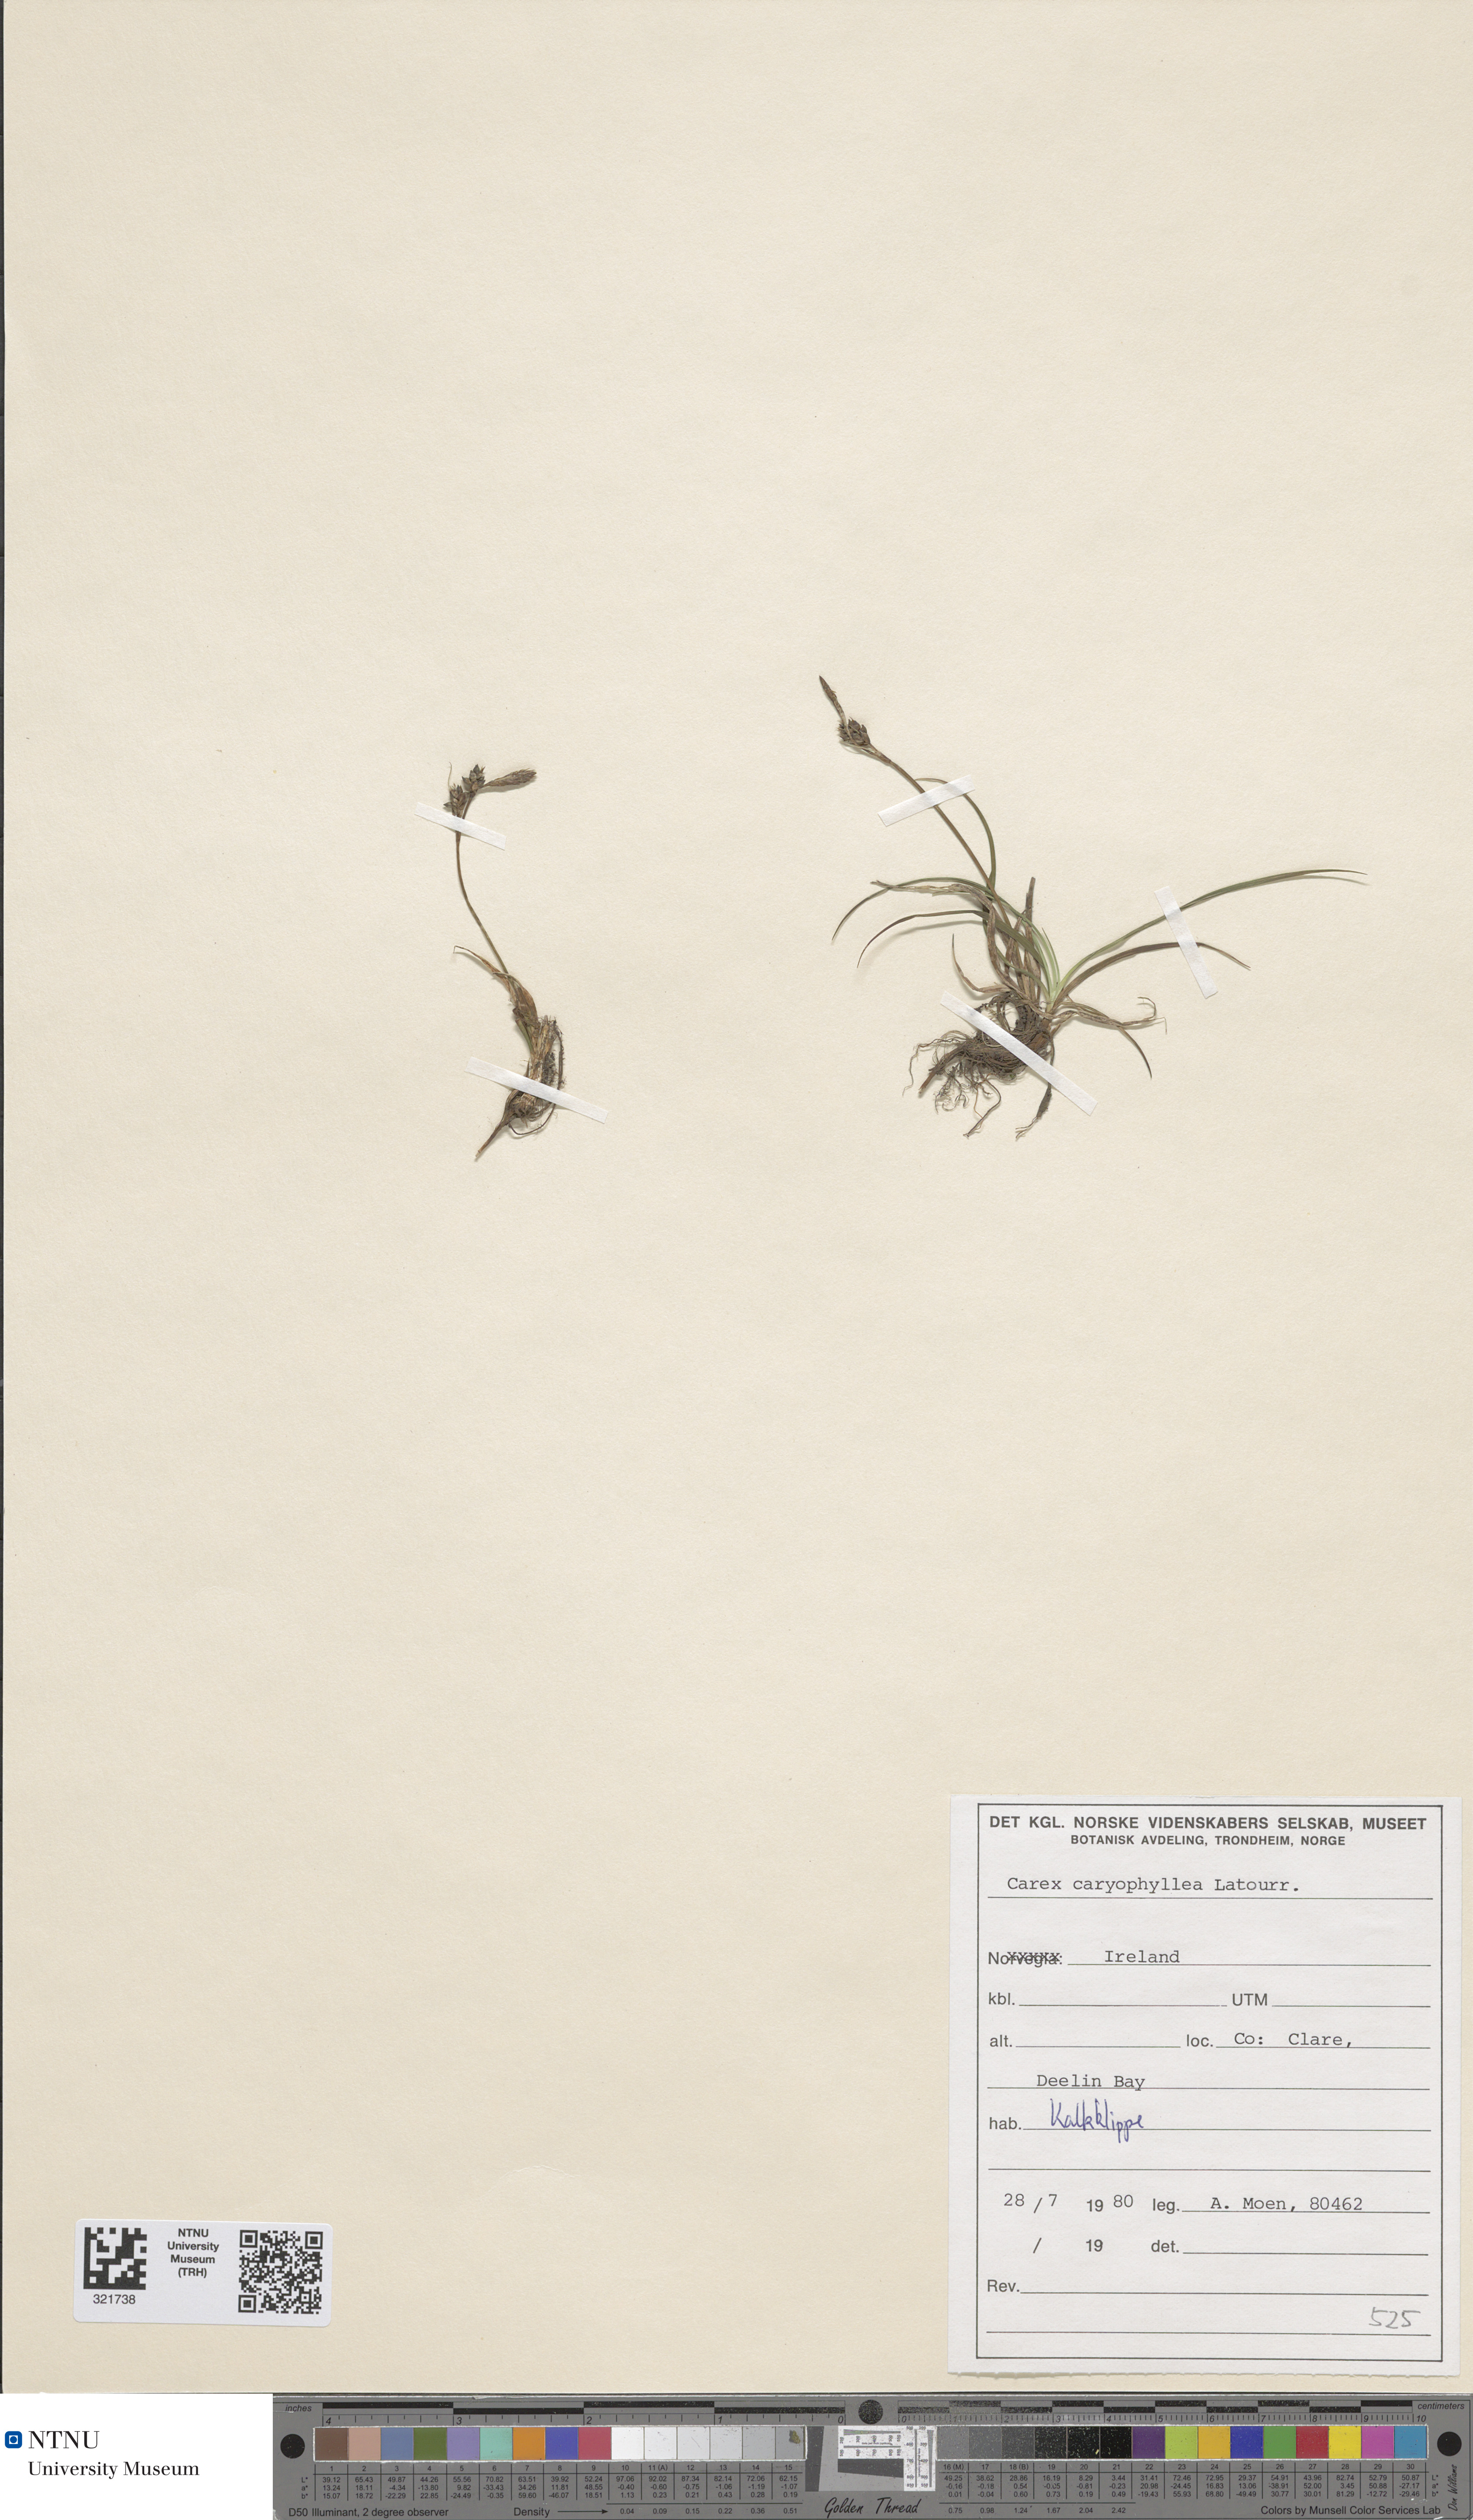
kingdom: Plantae
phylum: Tracheophyta
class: Liliopsida
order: Poales
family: Cyperaceae
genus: Carex
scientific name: Carex caryophyllea
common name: Spring sedge
